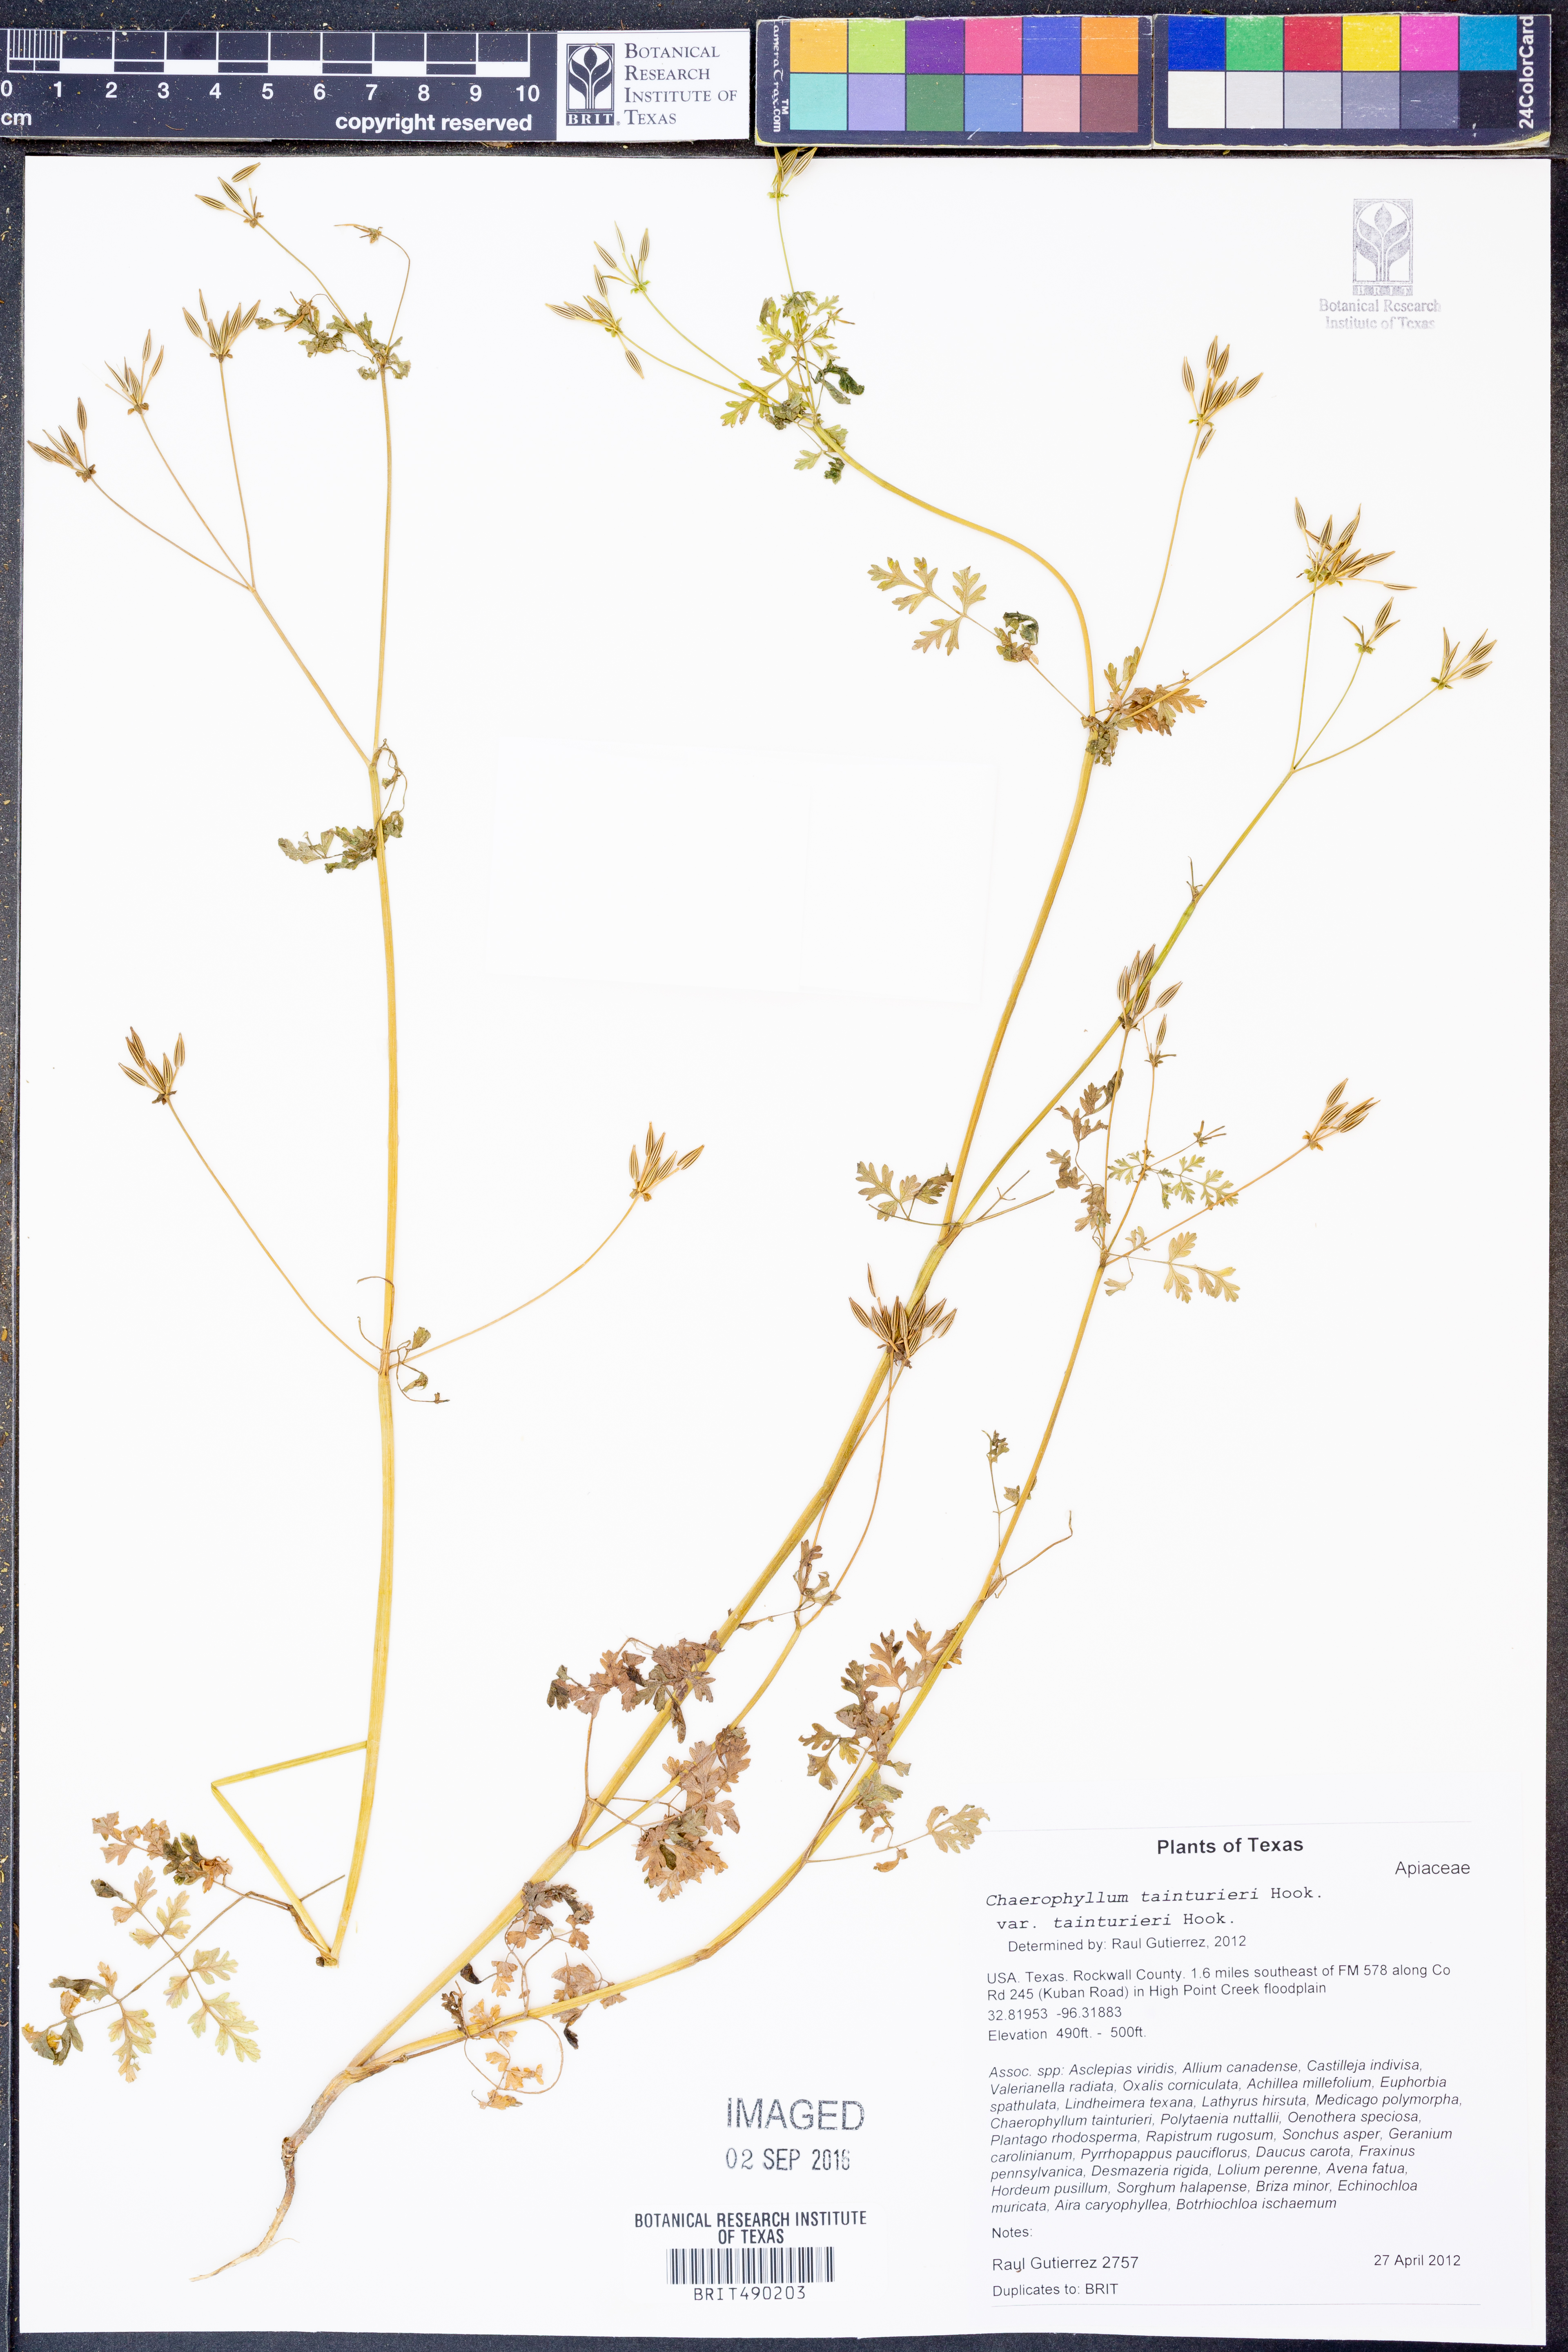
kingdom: Plantae
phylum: Tracheophyta
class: Magnoliopsida
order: Apiales
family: Apiaceae
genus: Chaerophyllum
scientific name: Chaerophyllum tainturieri
